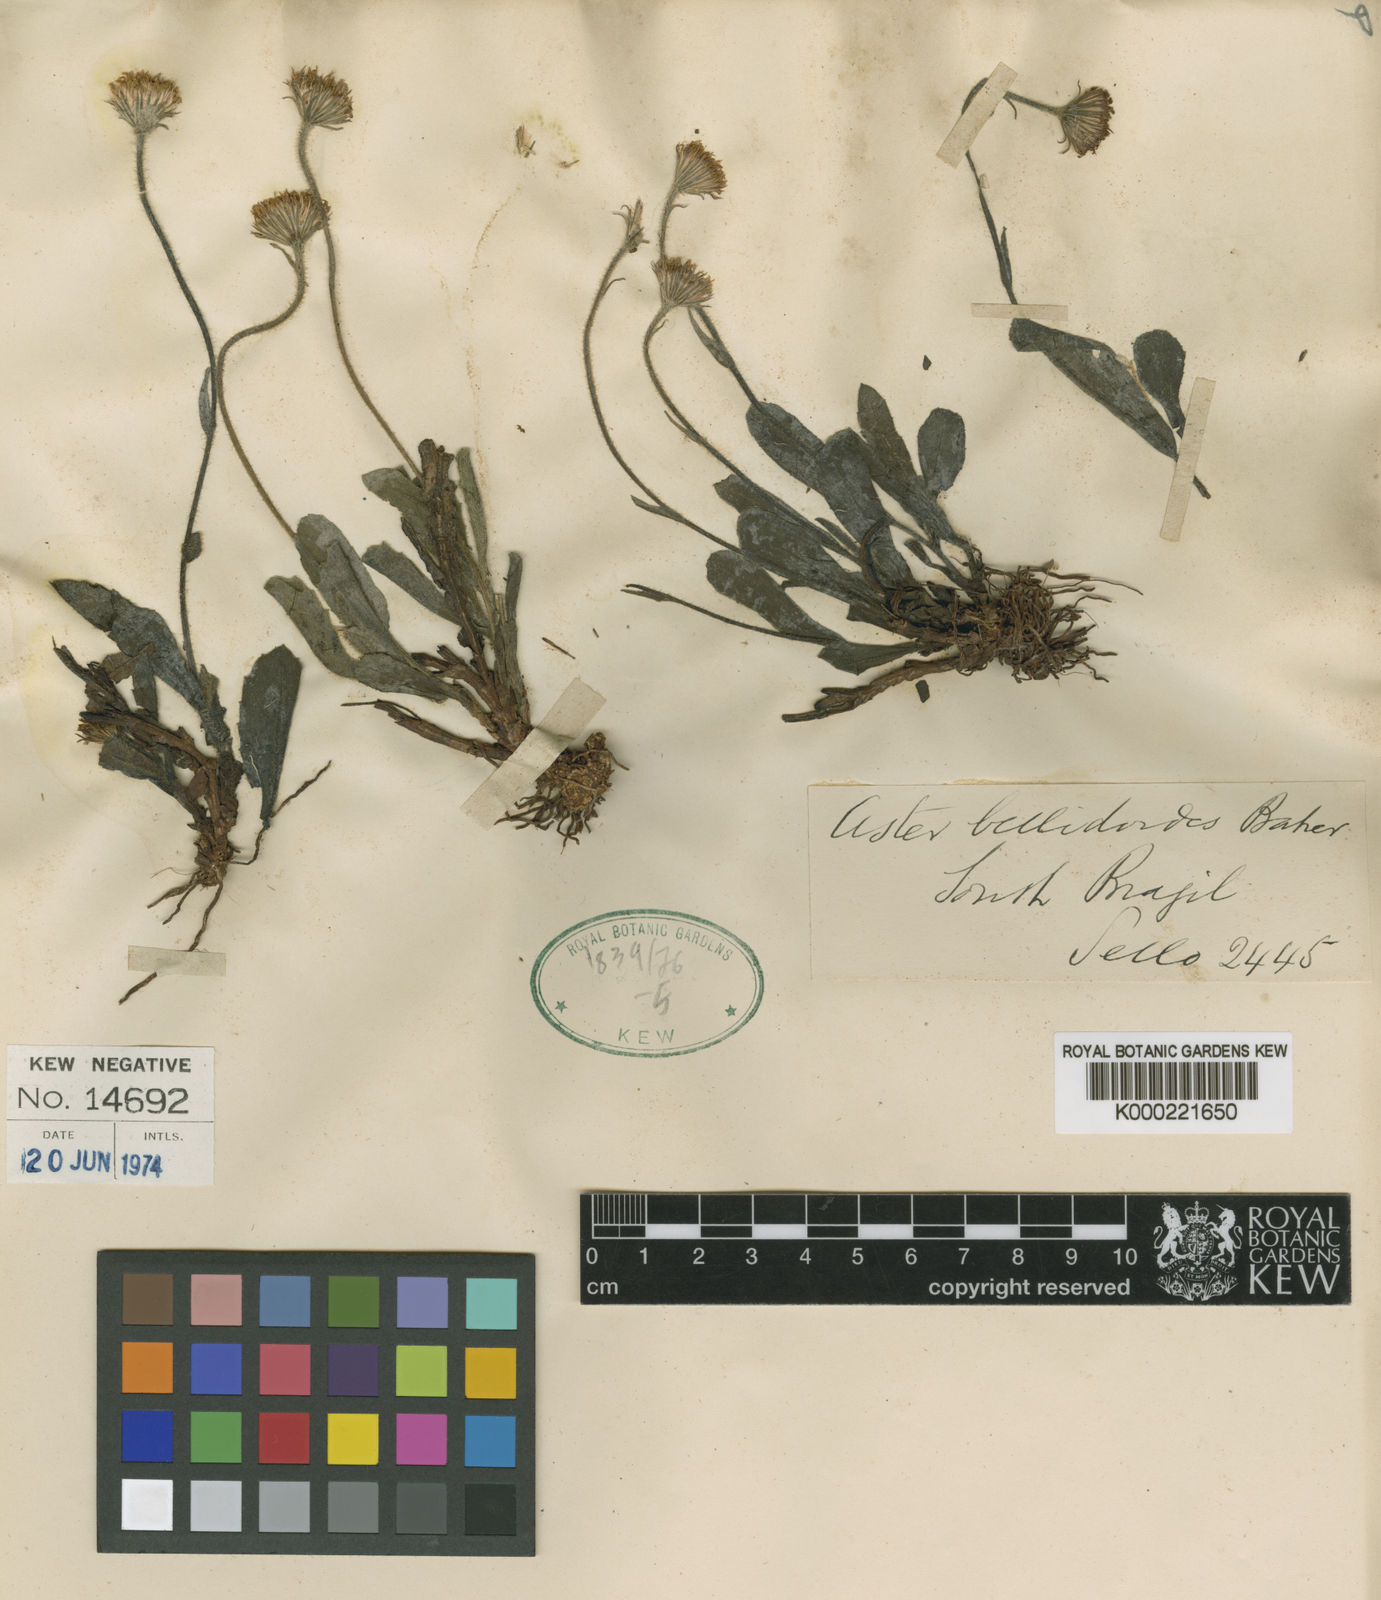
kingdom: Plantae
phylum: Tracheophyta
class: Magnoliopsida
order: Asterales
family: Asteraceae
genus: Aster
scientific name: Aster
